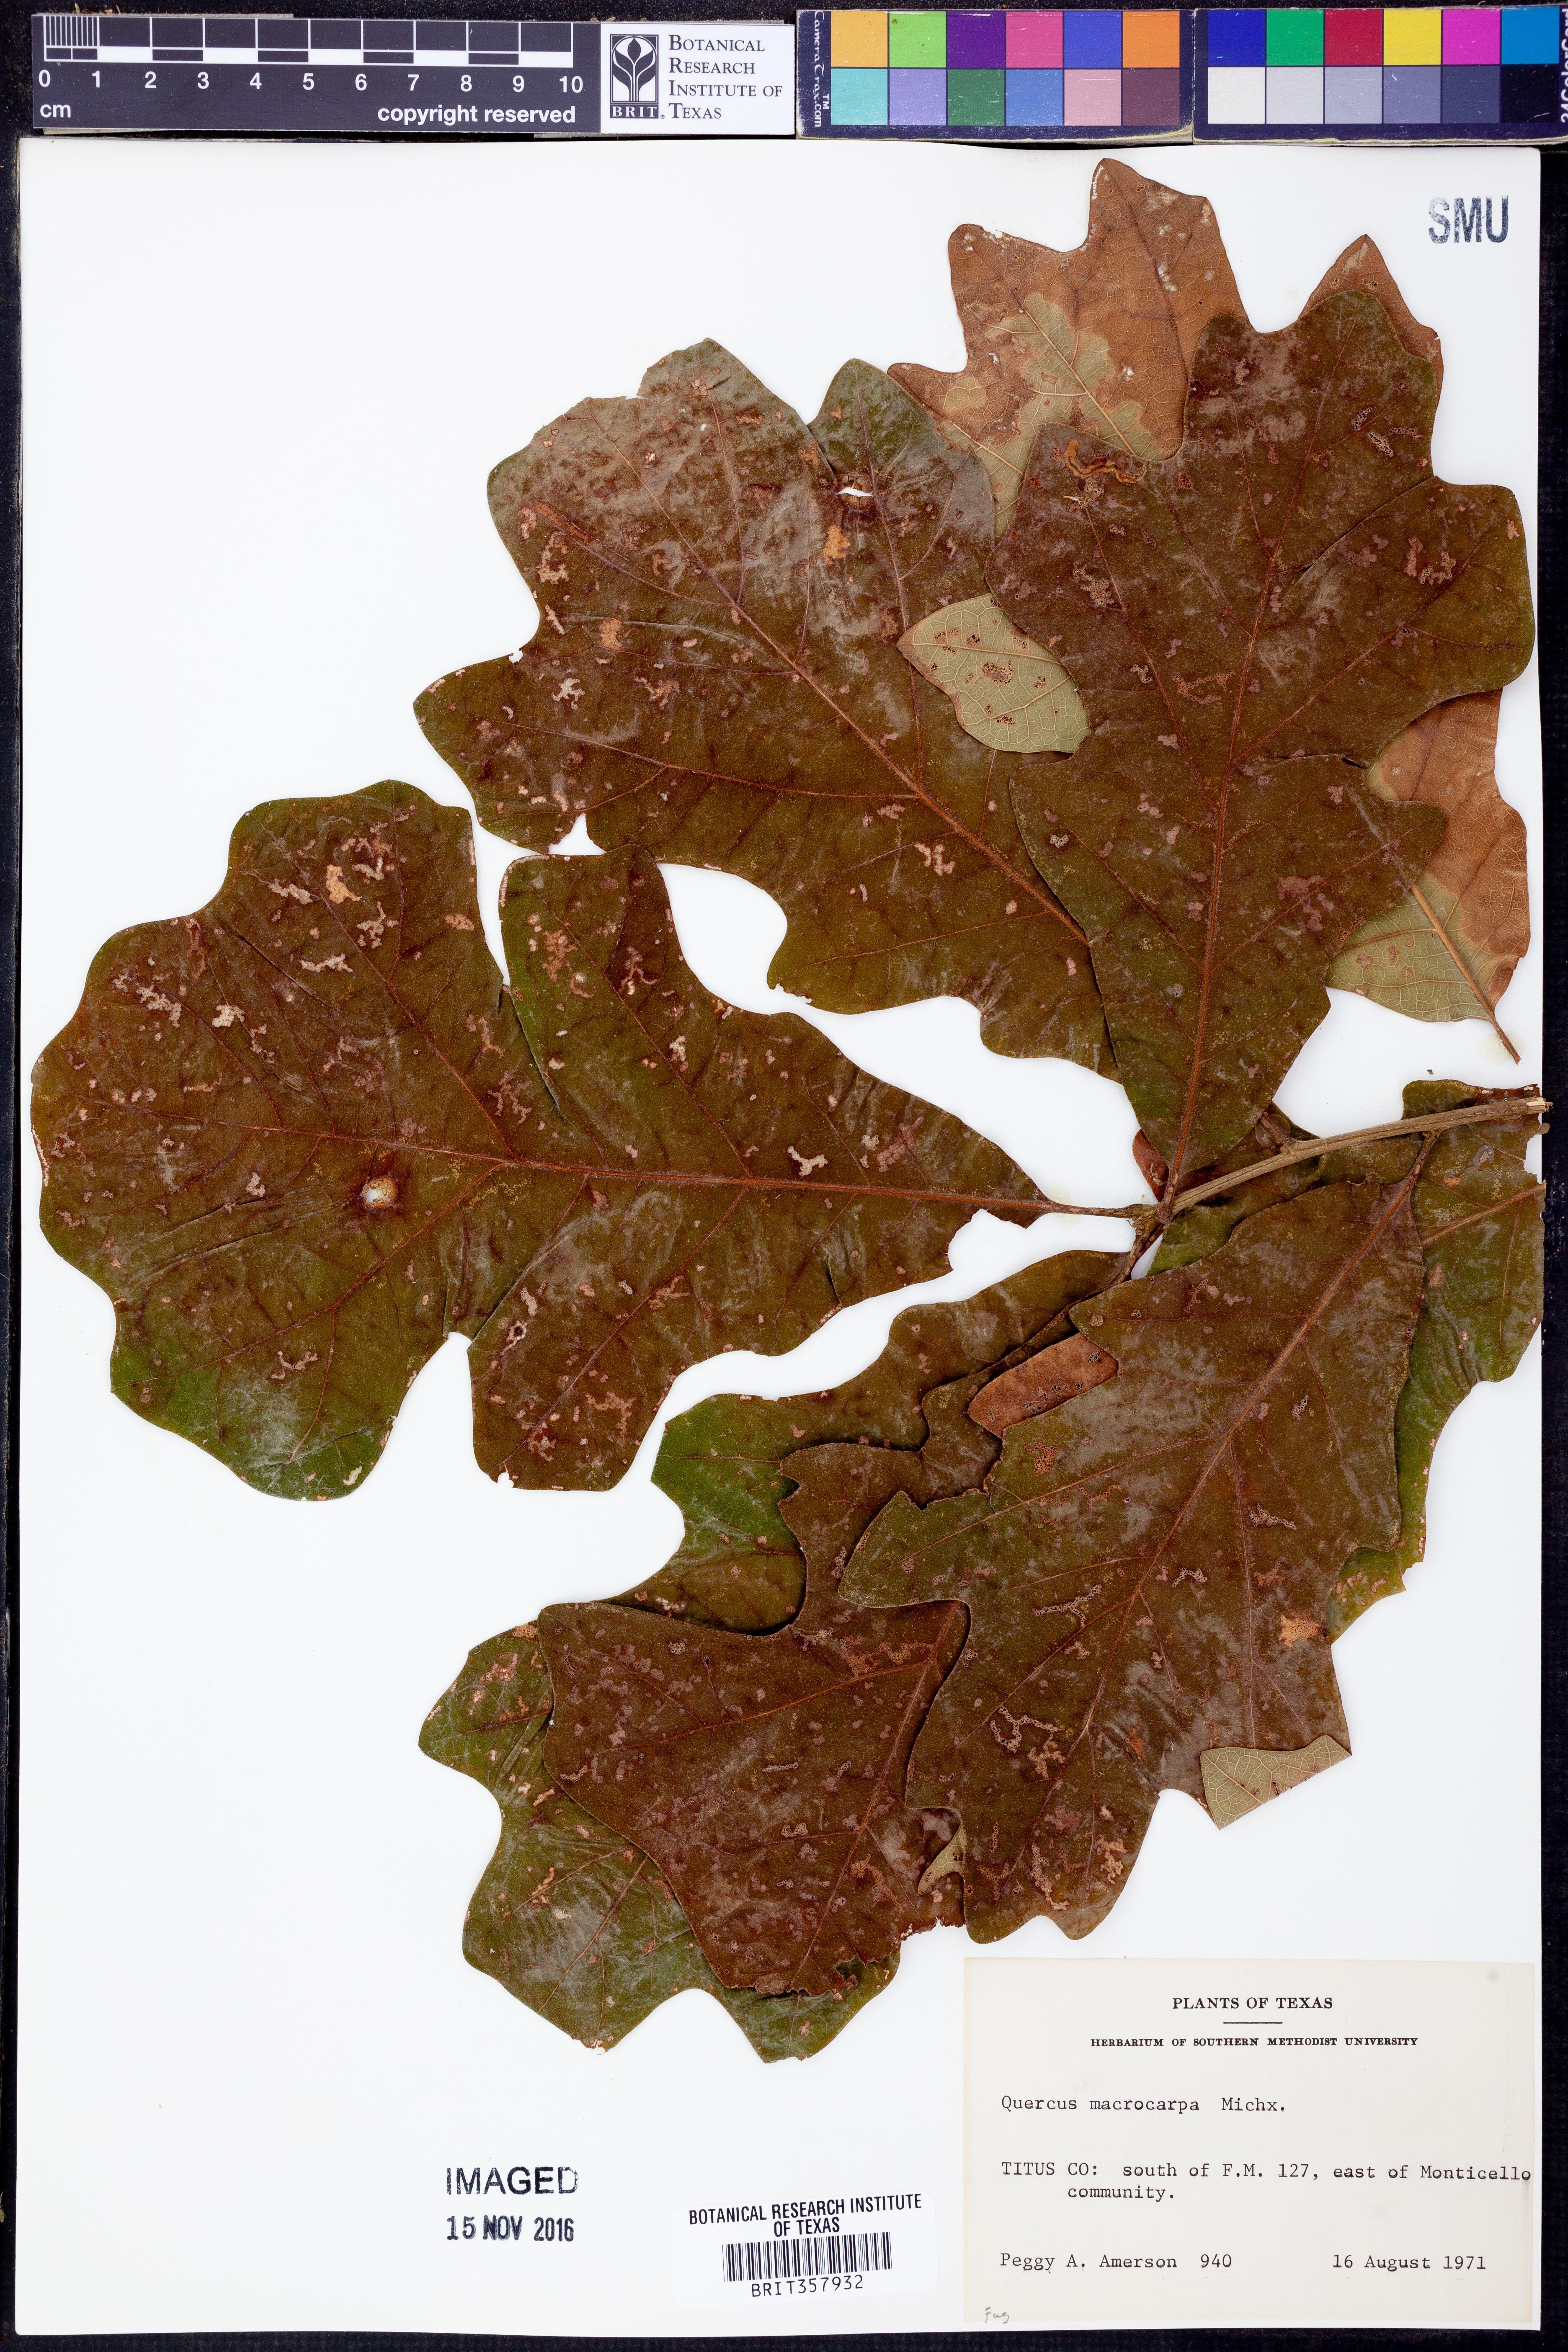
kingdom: Plantae
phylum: Tracheophyta
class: Magnoliopsida
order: Fagales
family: Fagaceae
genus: Quercus
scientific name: Quercus macrocarpa
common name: Bur oak
